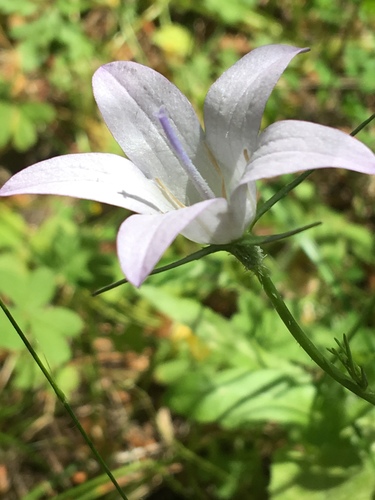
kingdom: Plantae
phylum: Tracheophyta
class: Magnoliopsida
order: Asterales
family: Campanulaceae
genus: Campanula
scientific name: Campanula rapunculus
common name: Rampion bellflower
